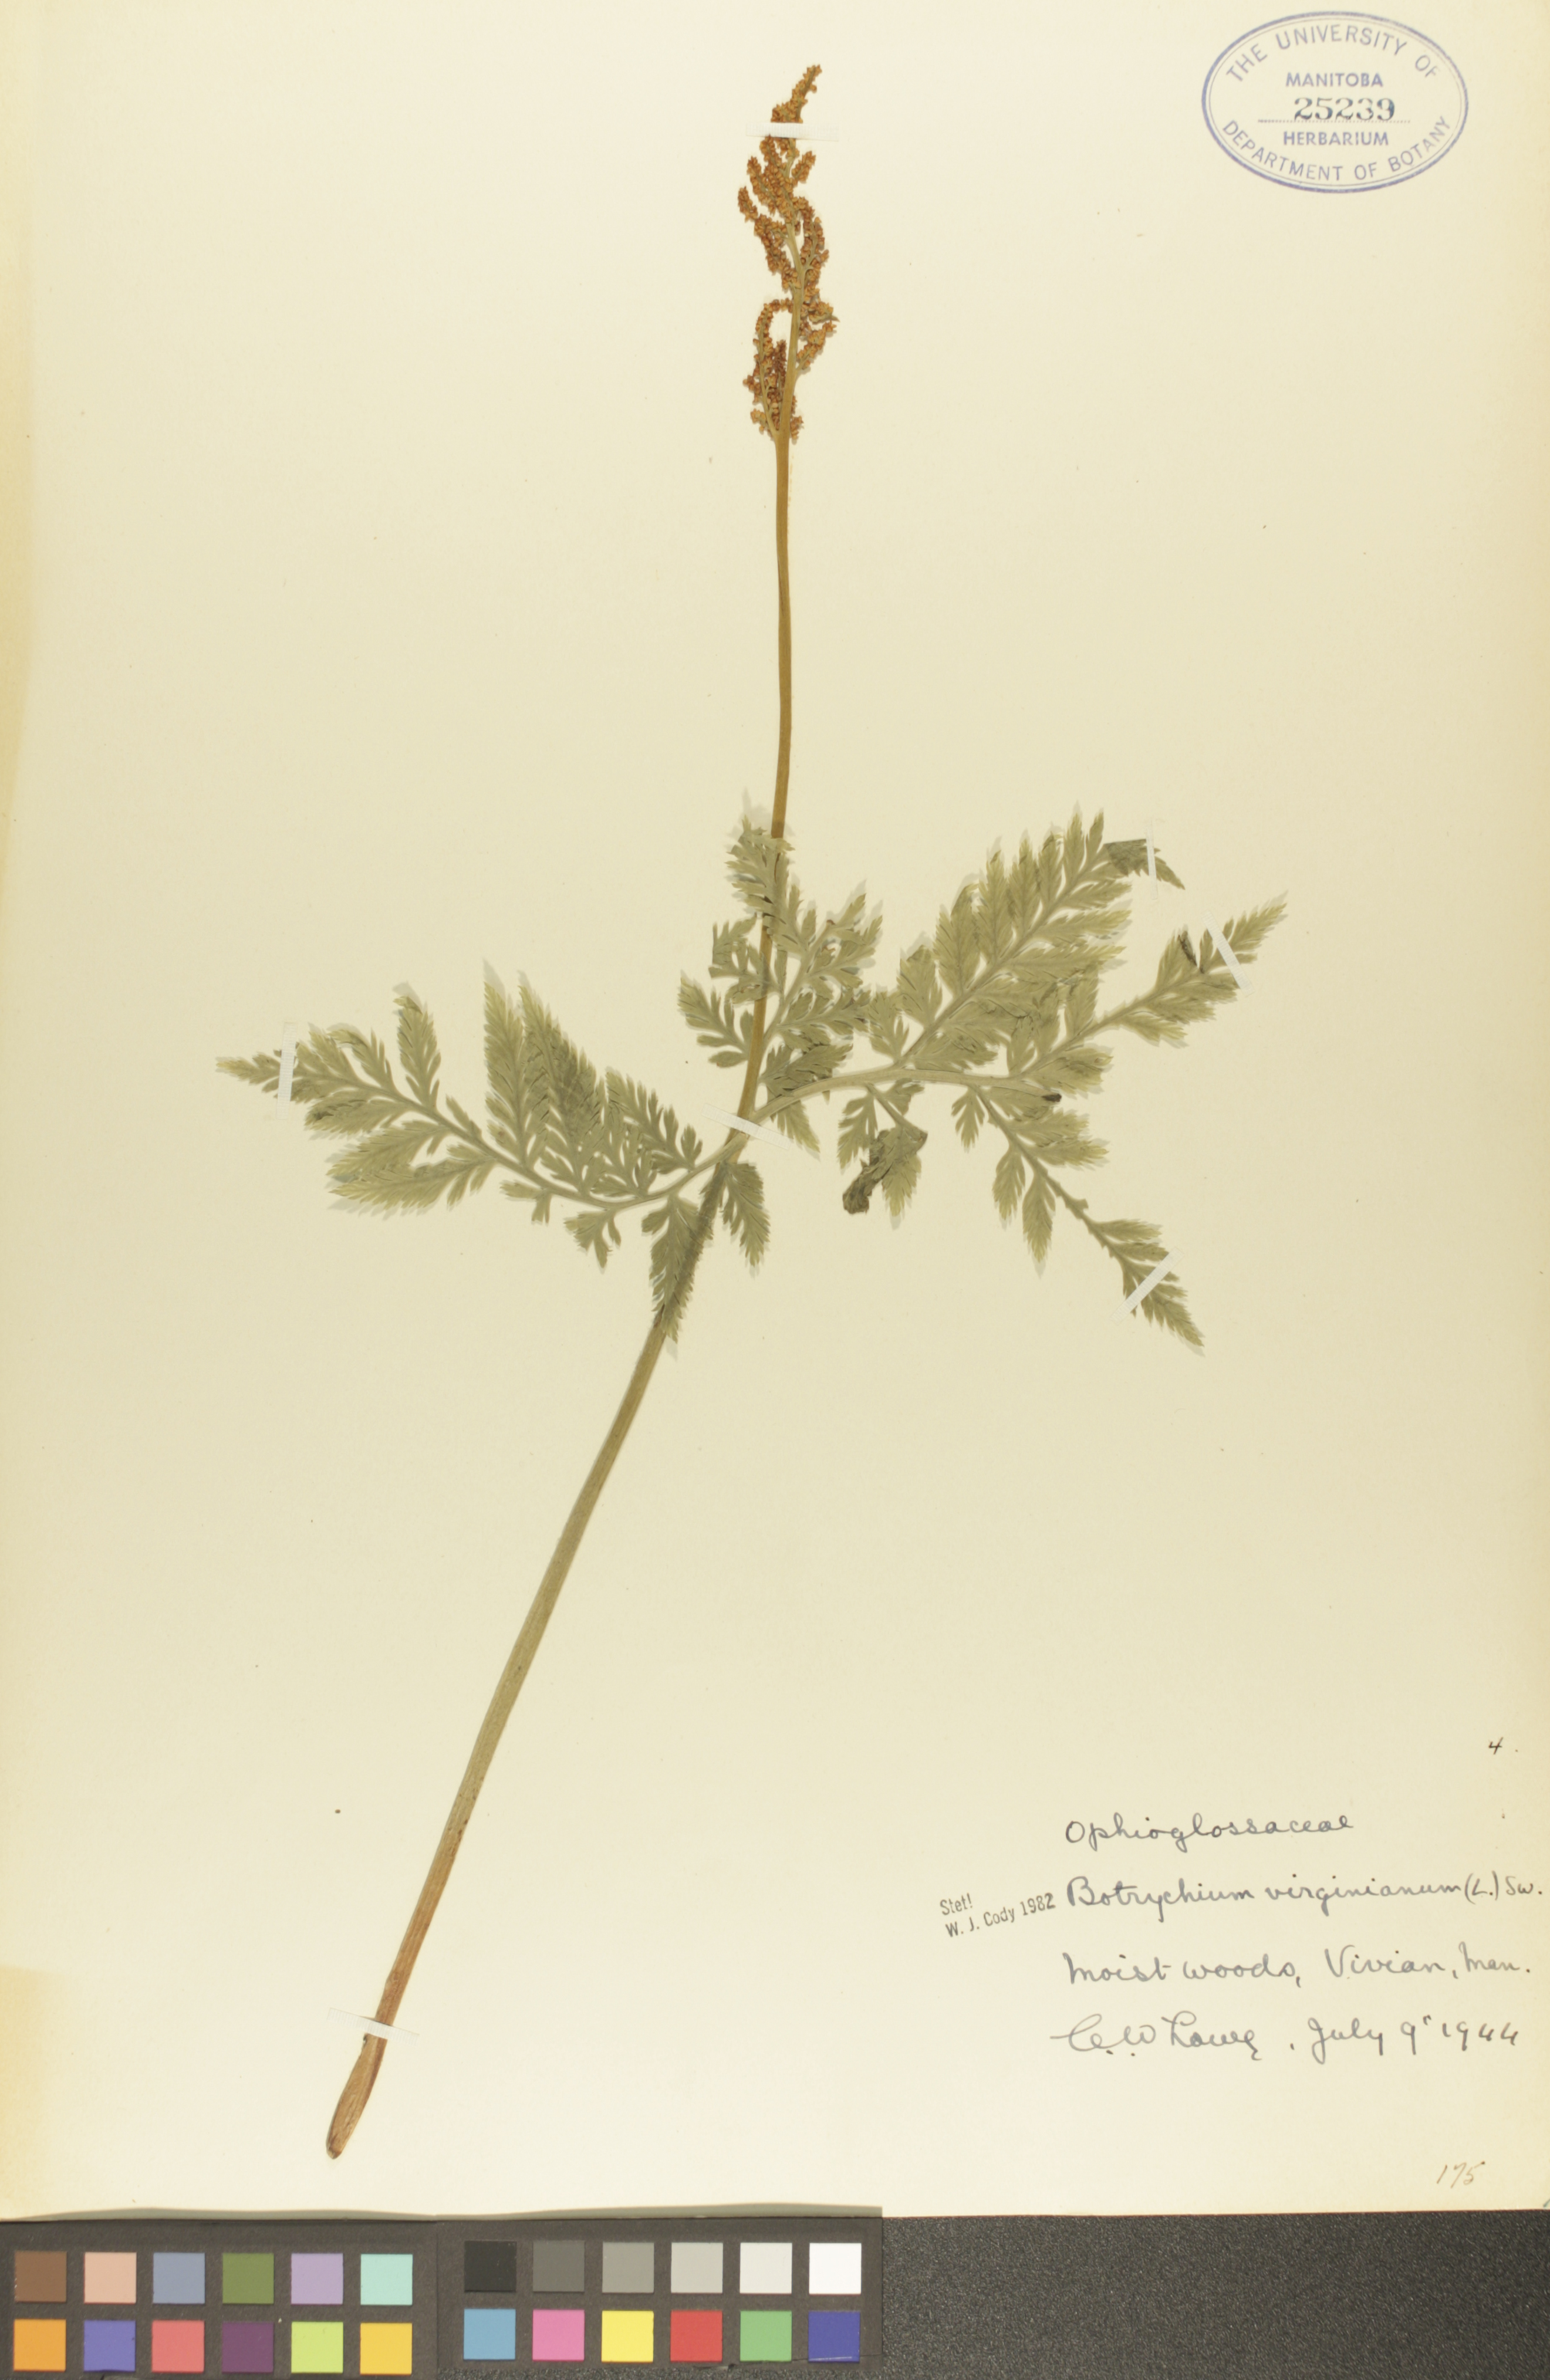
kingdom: Plantae
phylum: Tracheophyta
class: Polypodiopsida
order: Ophioglossales
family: Ophioglossaceae
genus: Botrypus
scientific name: Botrypus virginianus
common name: Common grapefern
